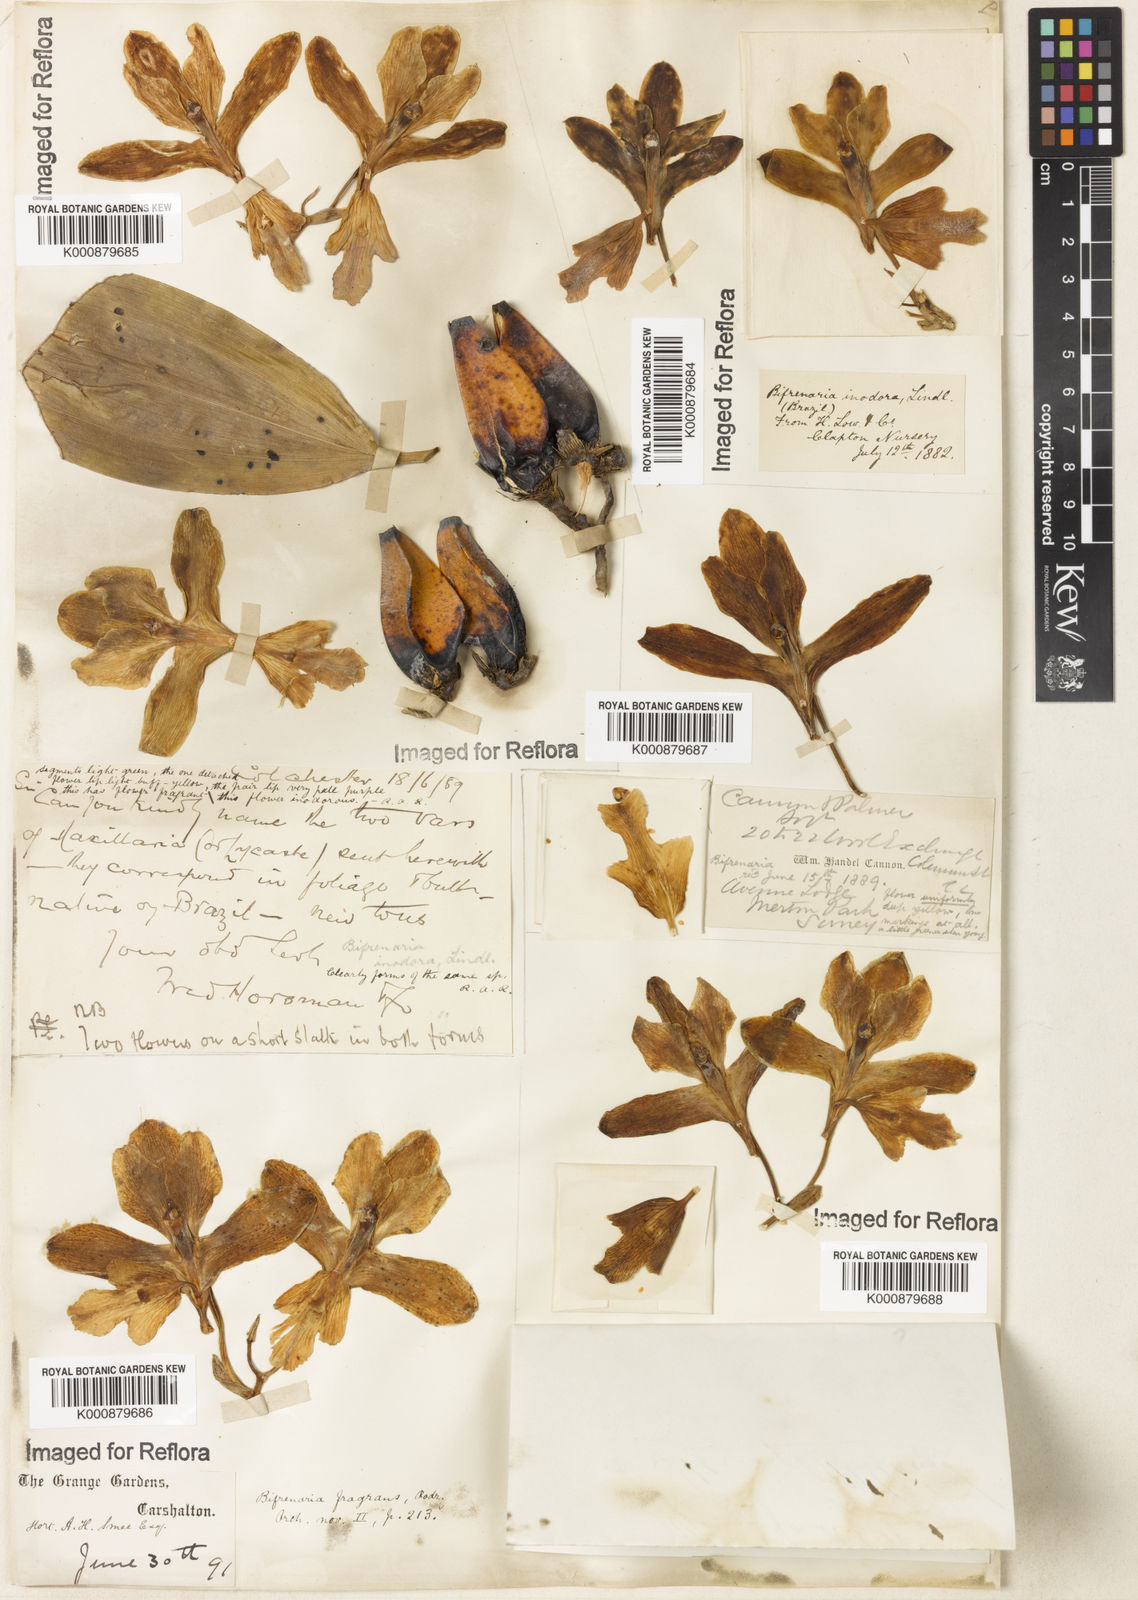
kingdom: Plantae
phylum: Tracheophyta
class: Liliopsida
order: Asparagales
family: Orchidaceae
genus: Bifrenaria
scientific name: Bifrenaria inodora
